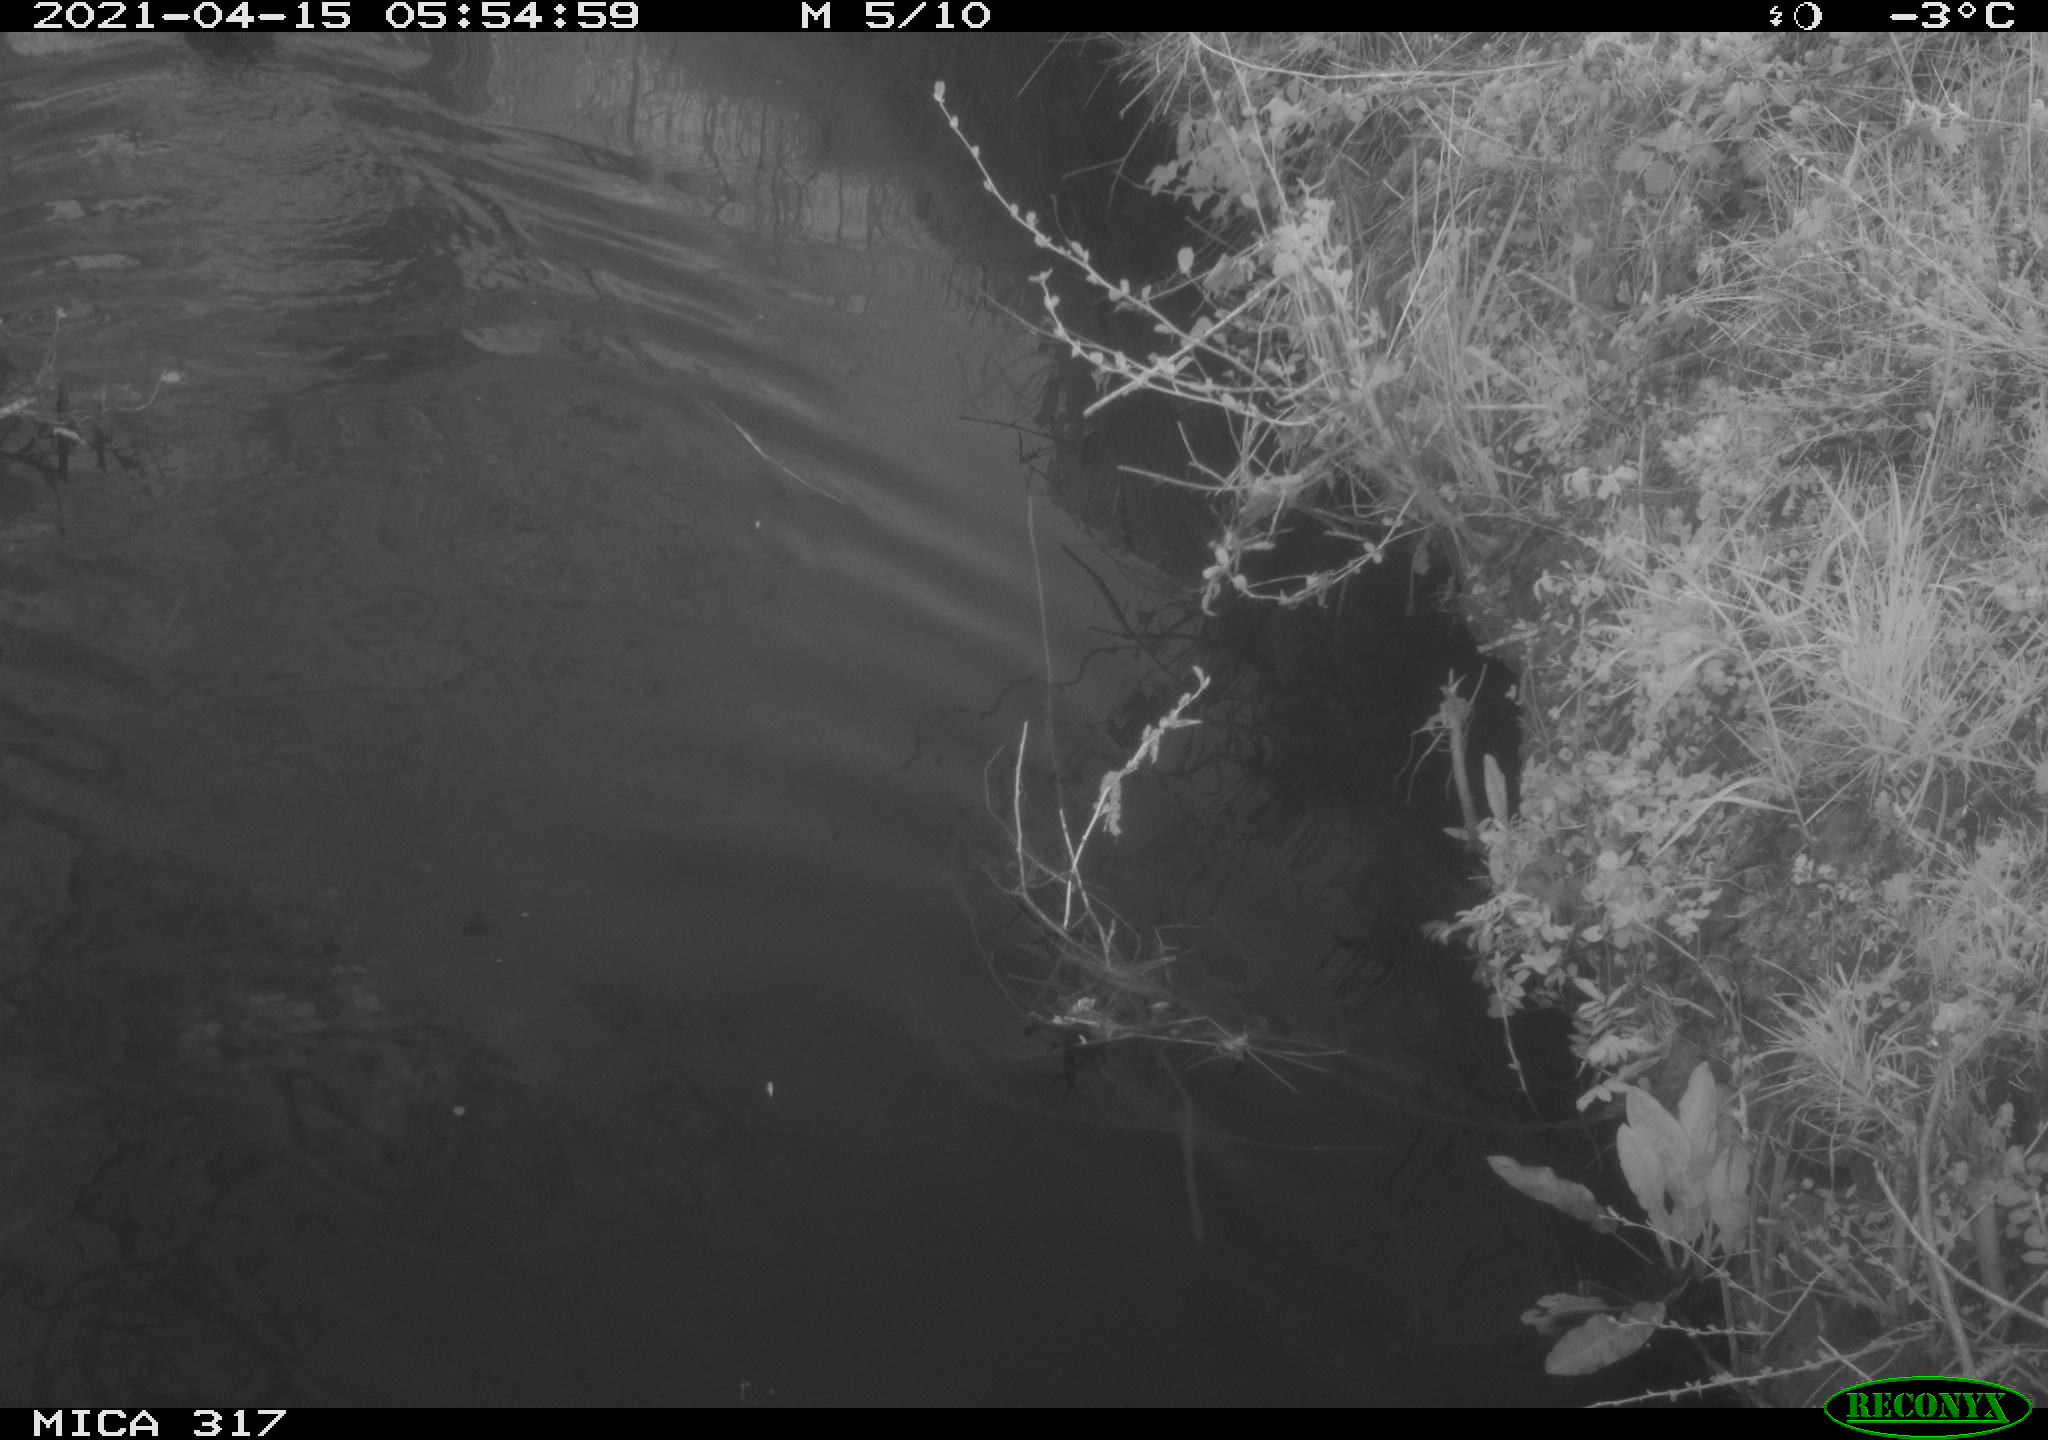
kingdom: Animalia
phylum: Chordata
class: Aves
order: Gruiformes
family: Rallidae
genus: Fulica
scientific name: Fulica atra
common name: Eurasian coot
